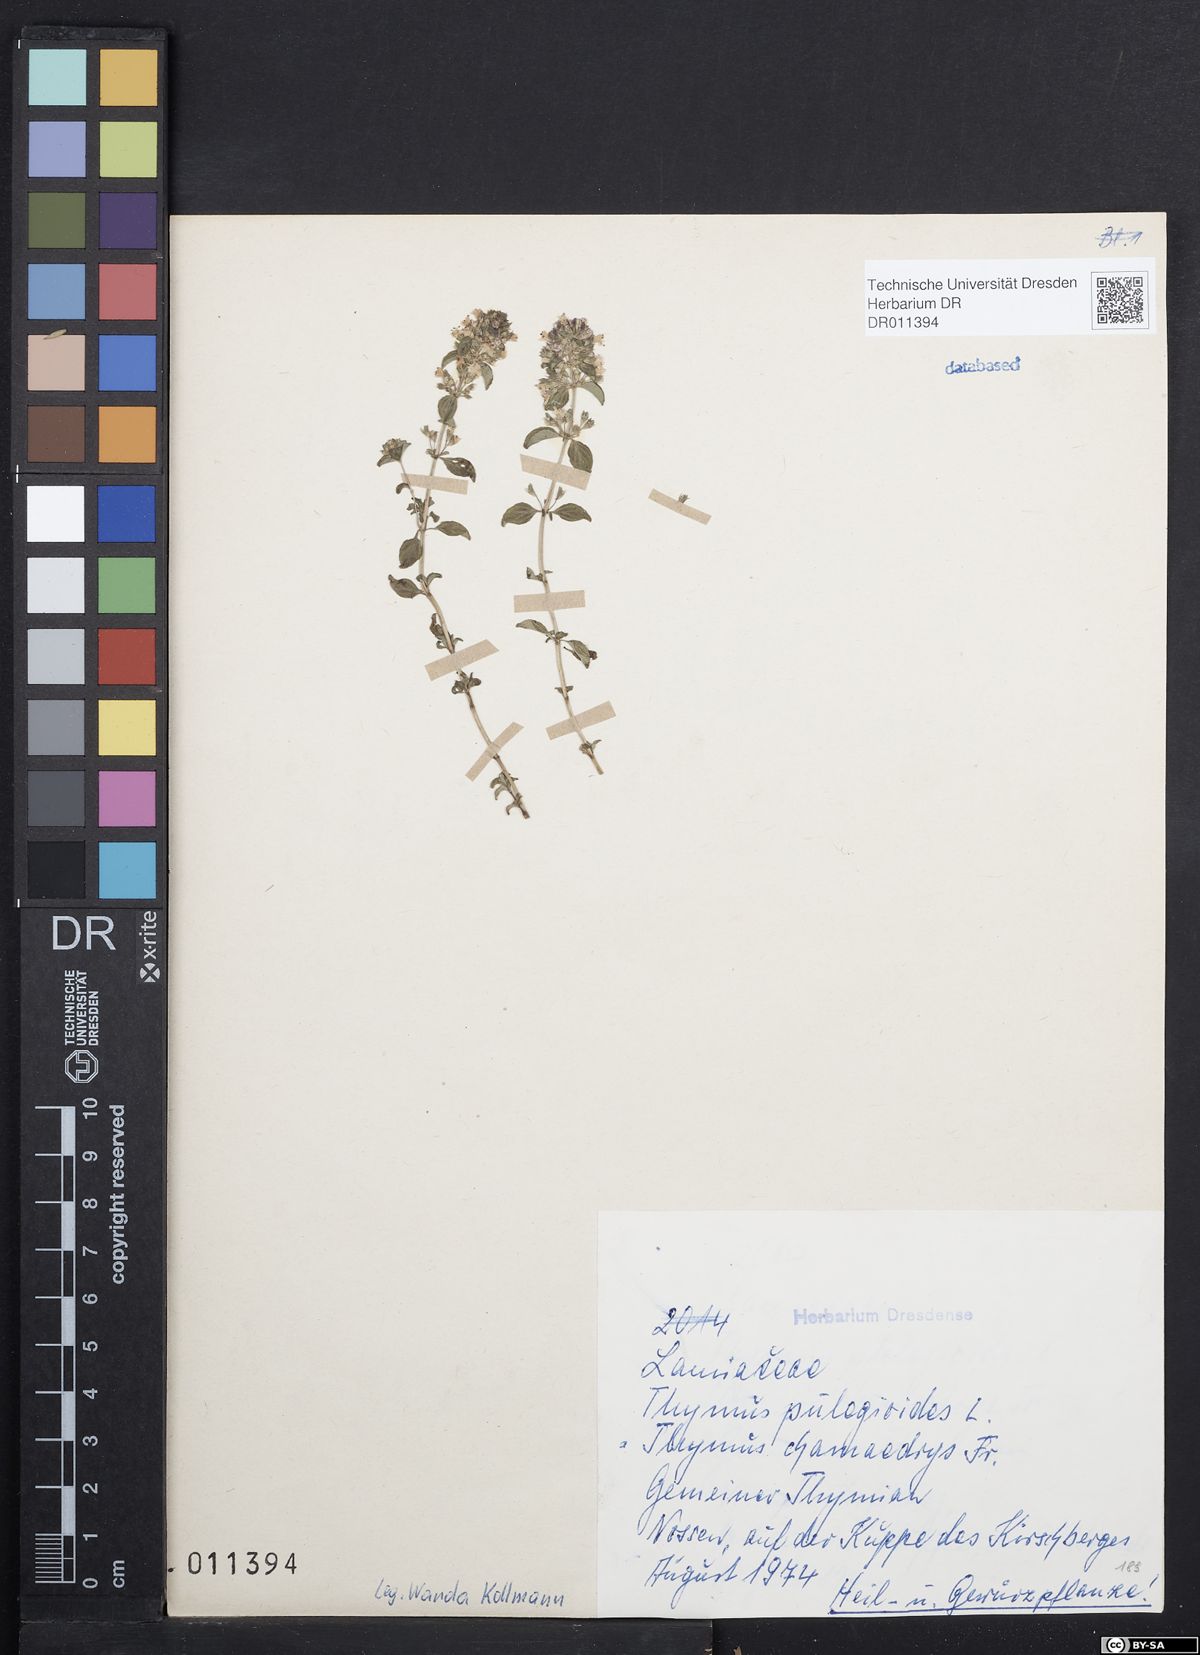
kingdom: Plantae
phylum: Tracheophyta
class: Magnoliopsida
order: Lamiales
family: Lamiaceae
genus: Thymus
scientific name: Thymus pulegioides
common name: Large thyme
